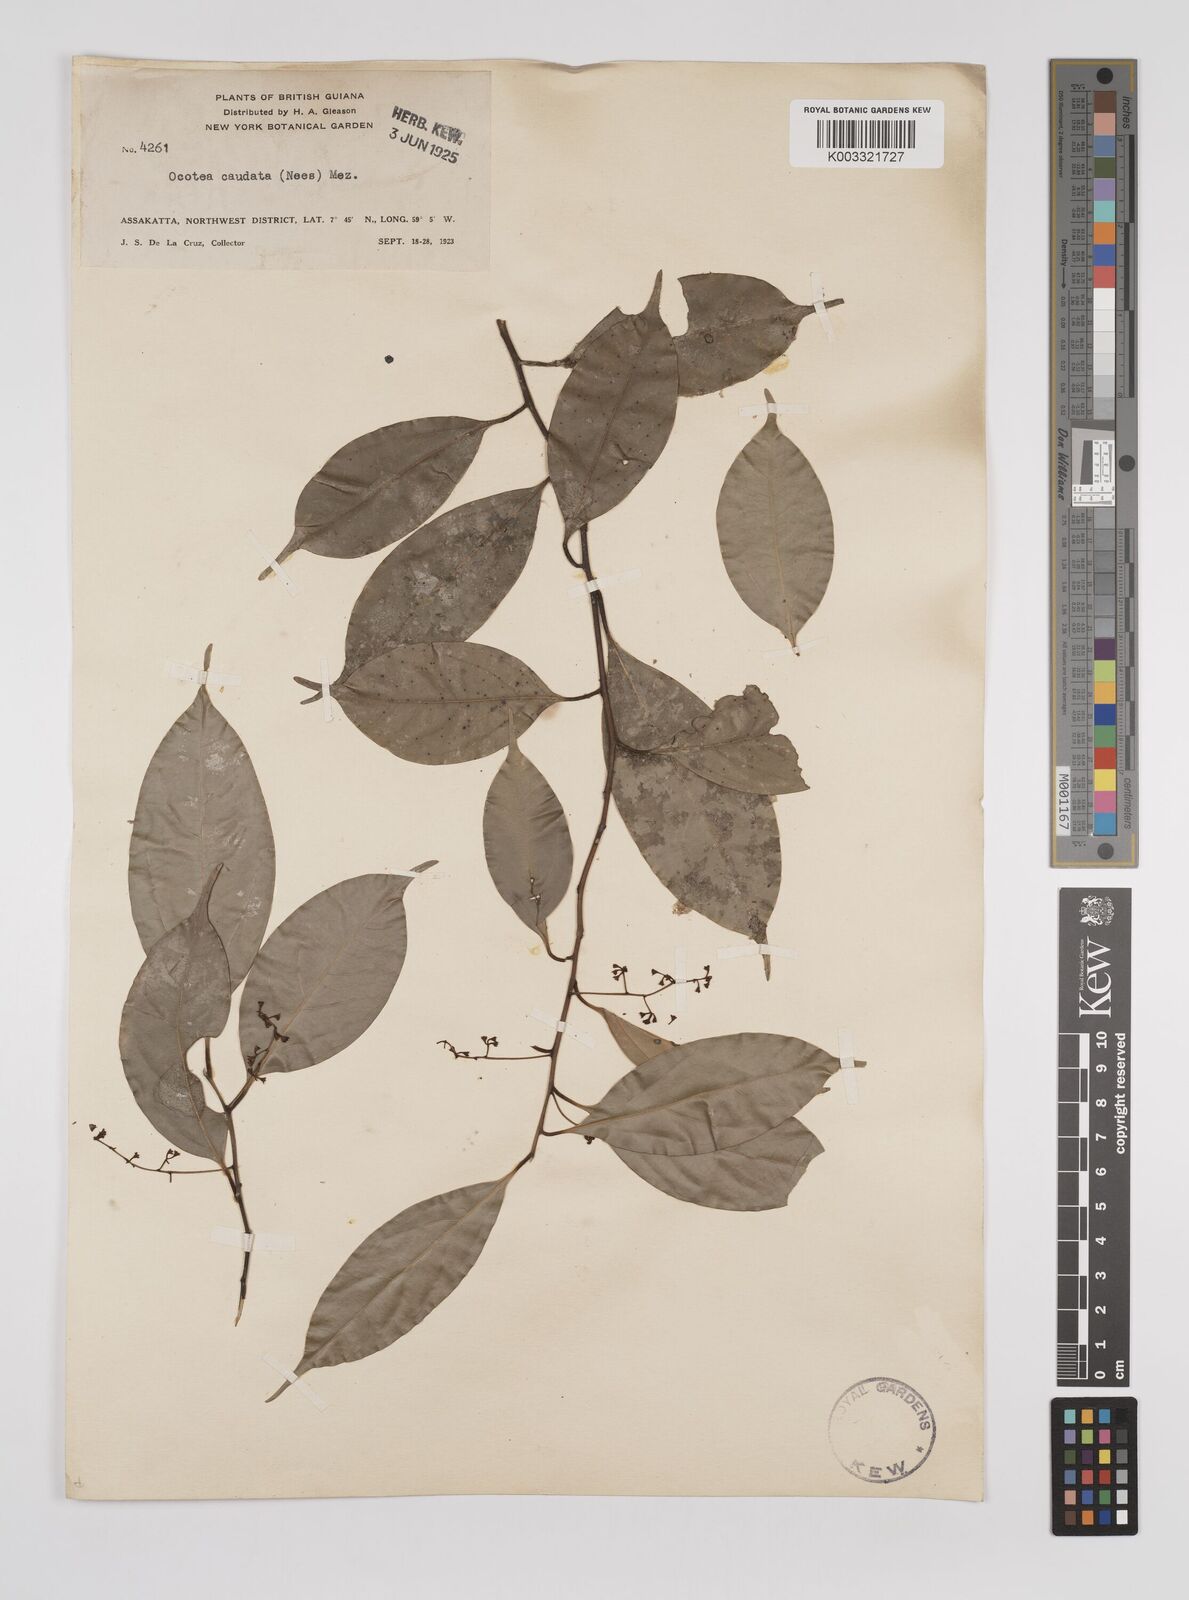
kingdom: Plantae
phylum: Tracheophyta
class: Magnoliopsida
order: Laurales
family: Lauraceae
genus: Ocotea
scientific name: Ocotea leptobotra
